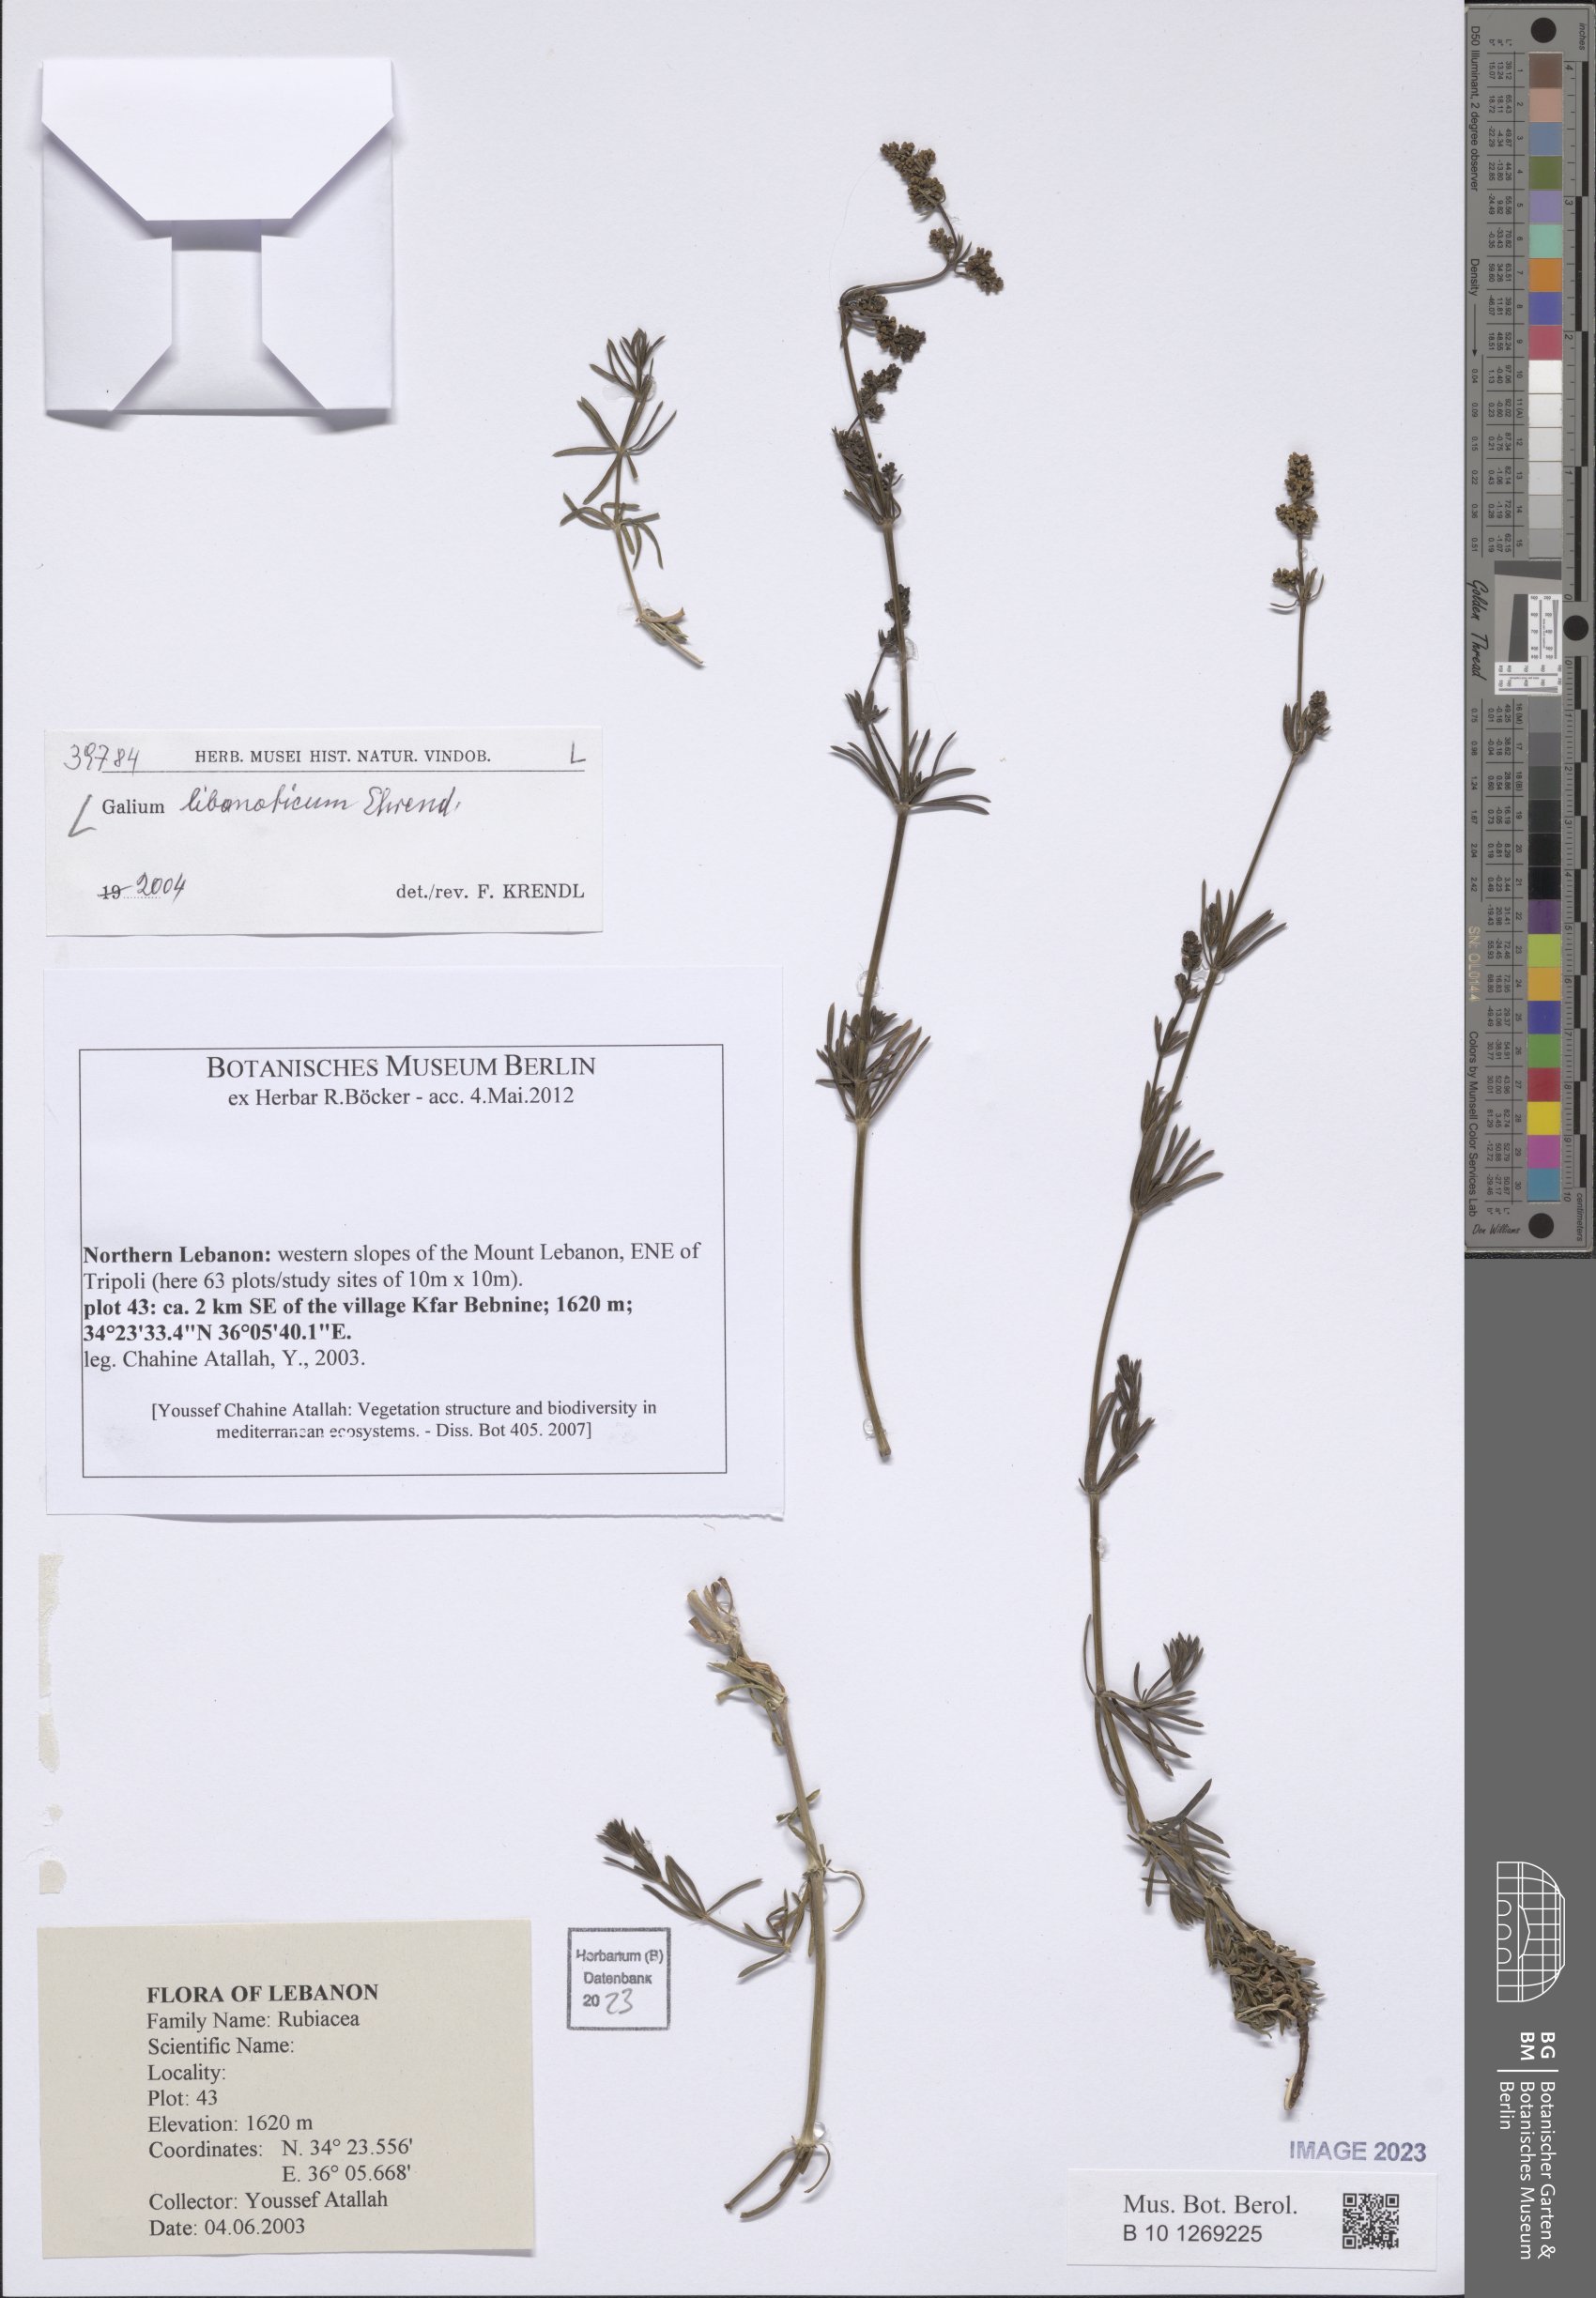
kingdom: Plantae
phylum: Tracheophyta
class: Magnoliopsida
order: Gentianales
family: Rubiaceae
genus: Galium
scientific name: Galium libanoticum
